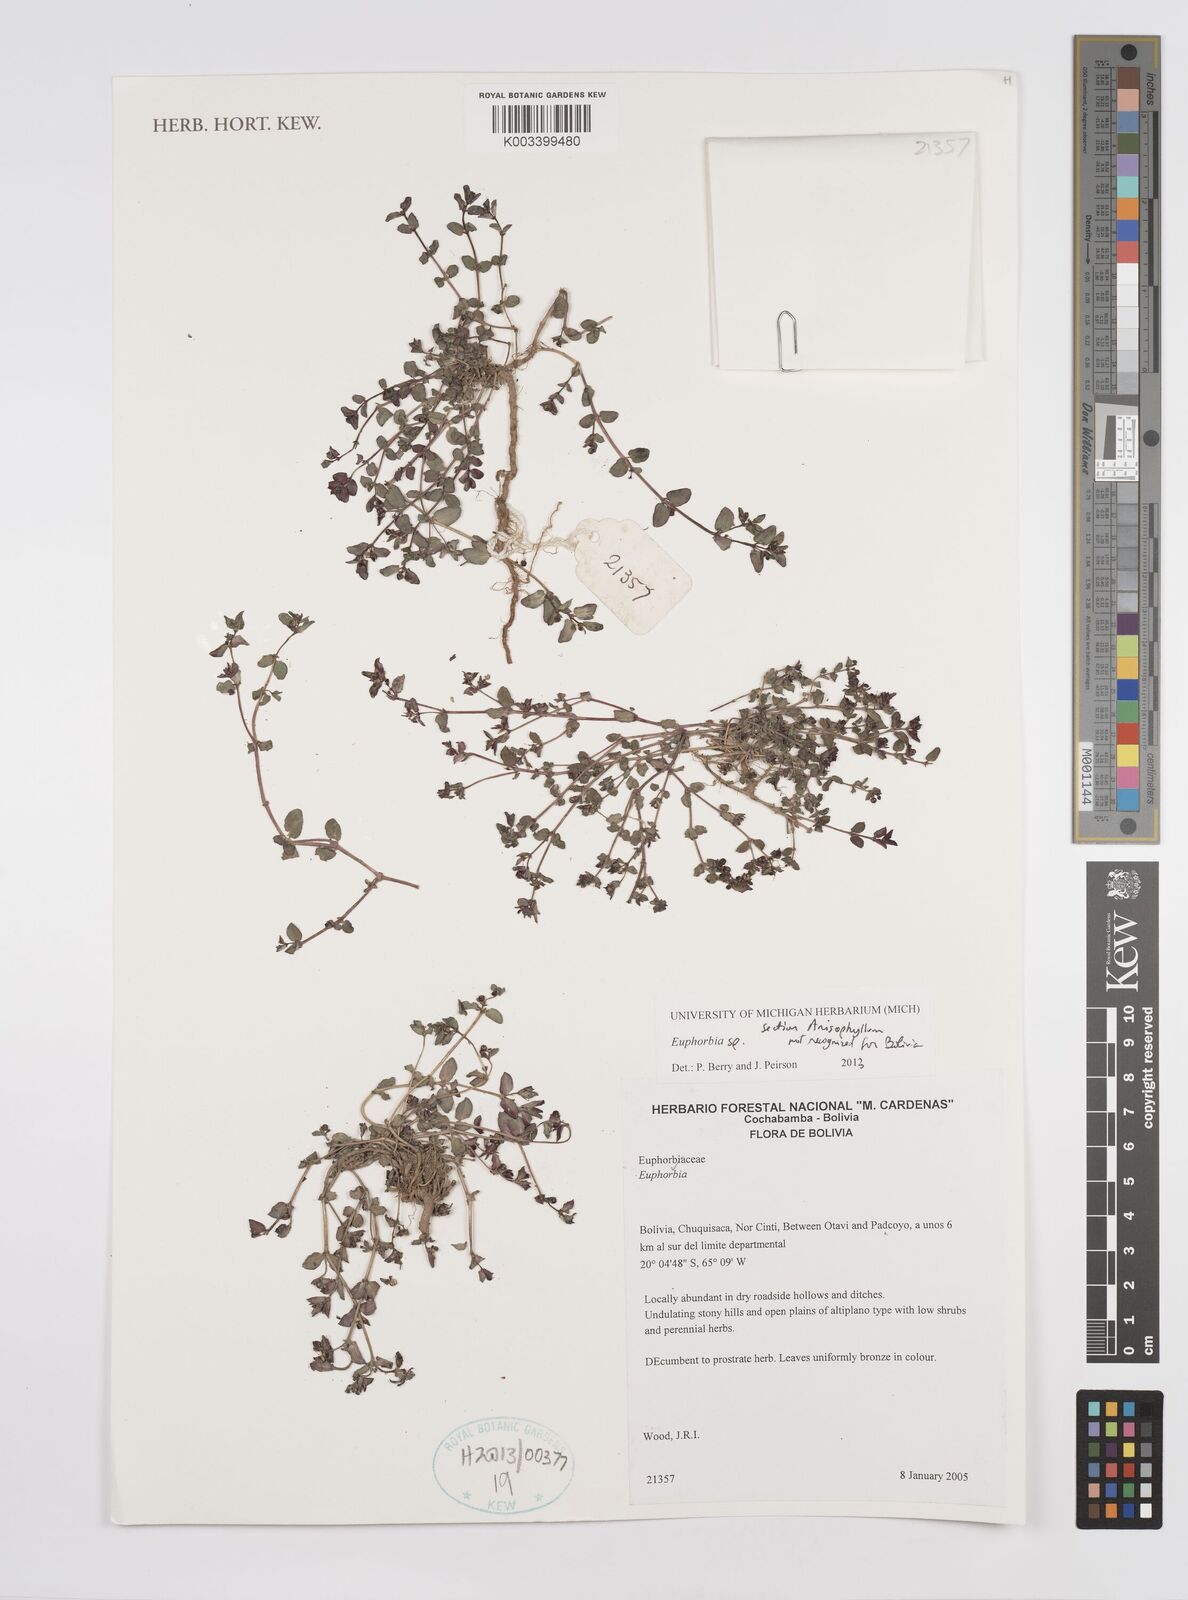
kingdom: Plantae
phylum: Tracheophyta
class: Magnoliopsida
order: Malpighiales
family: Euphorbiaceae
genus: Euphorbia
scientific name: Euphorbia
